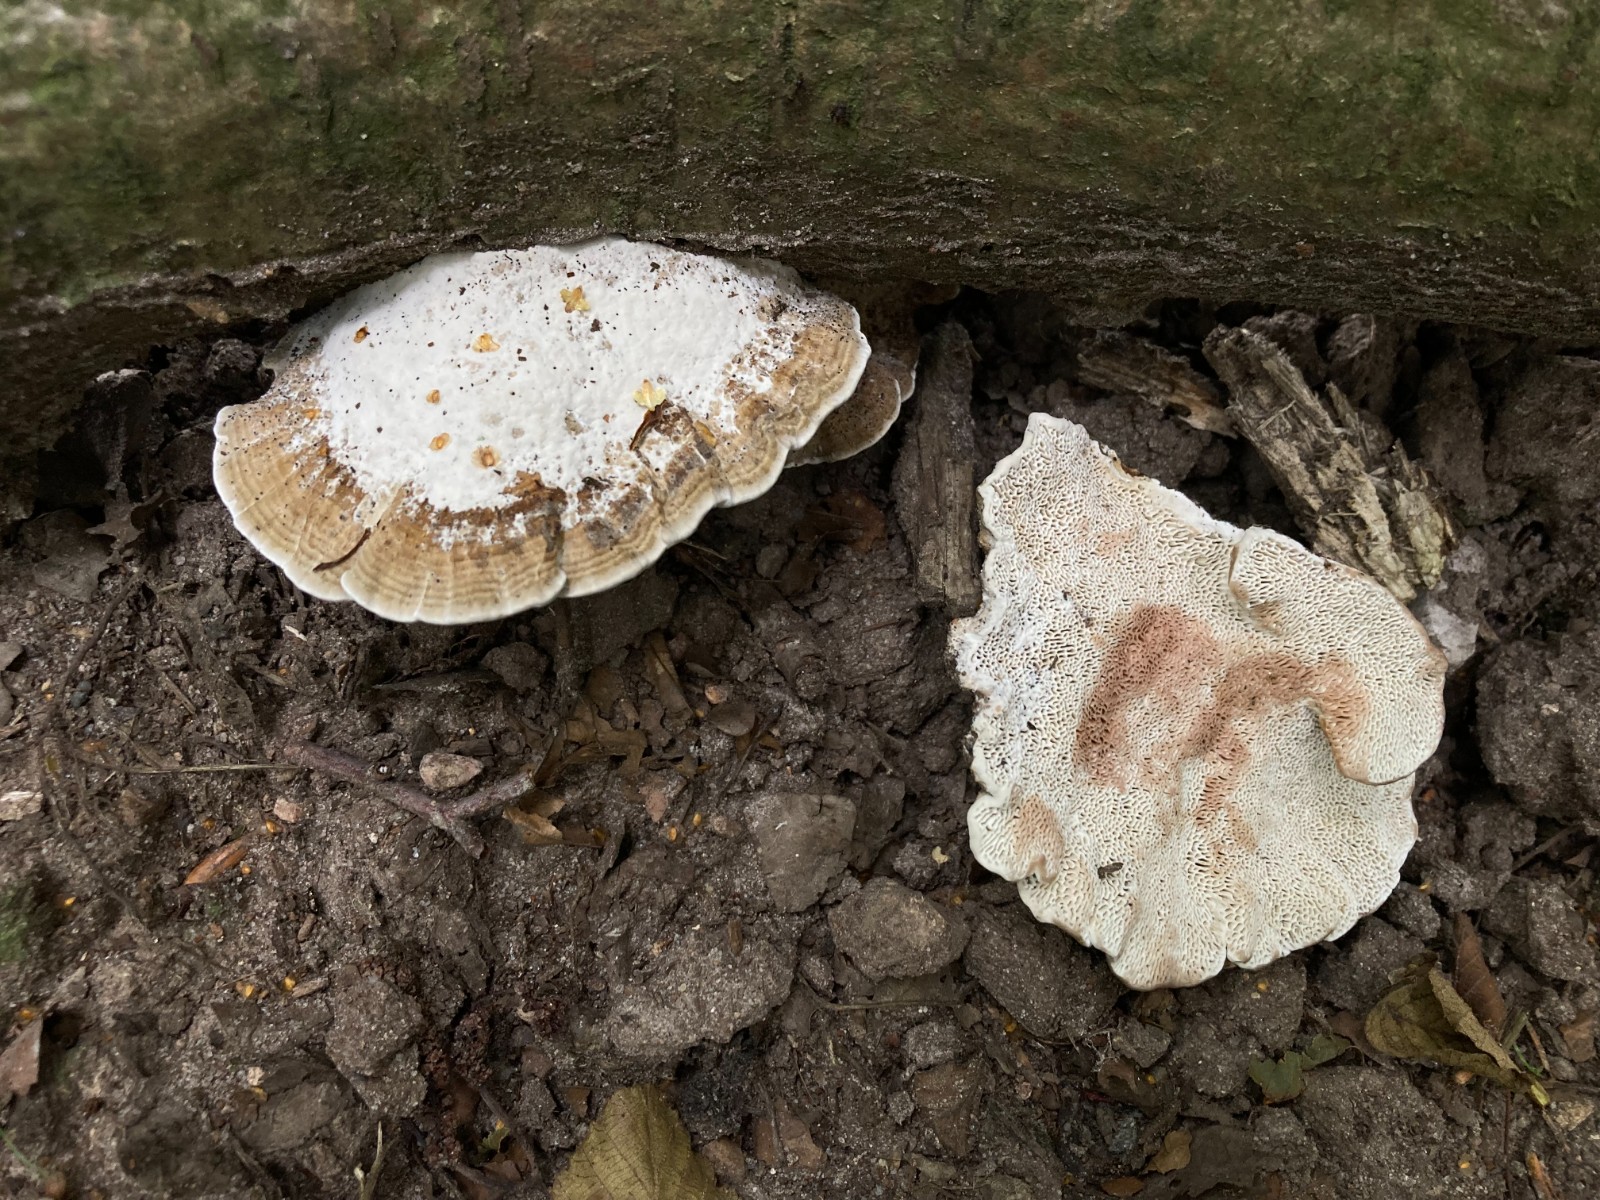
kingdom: Fungi
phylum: Basidiomycota
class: Agaricomycetes
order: Polyporales
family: Polyporaceae
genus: Daedaleopsis
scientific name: Daedaleopsis confragosa
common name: rødmende læderporesvamp
